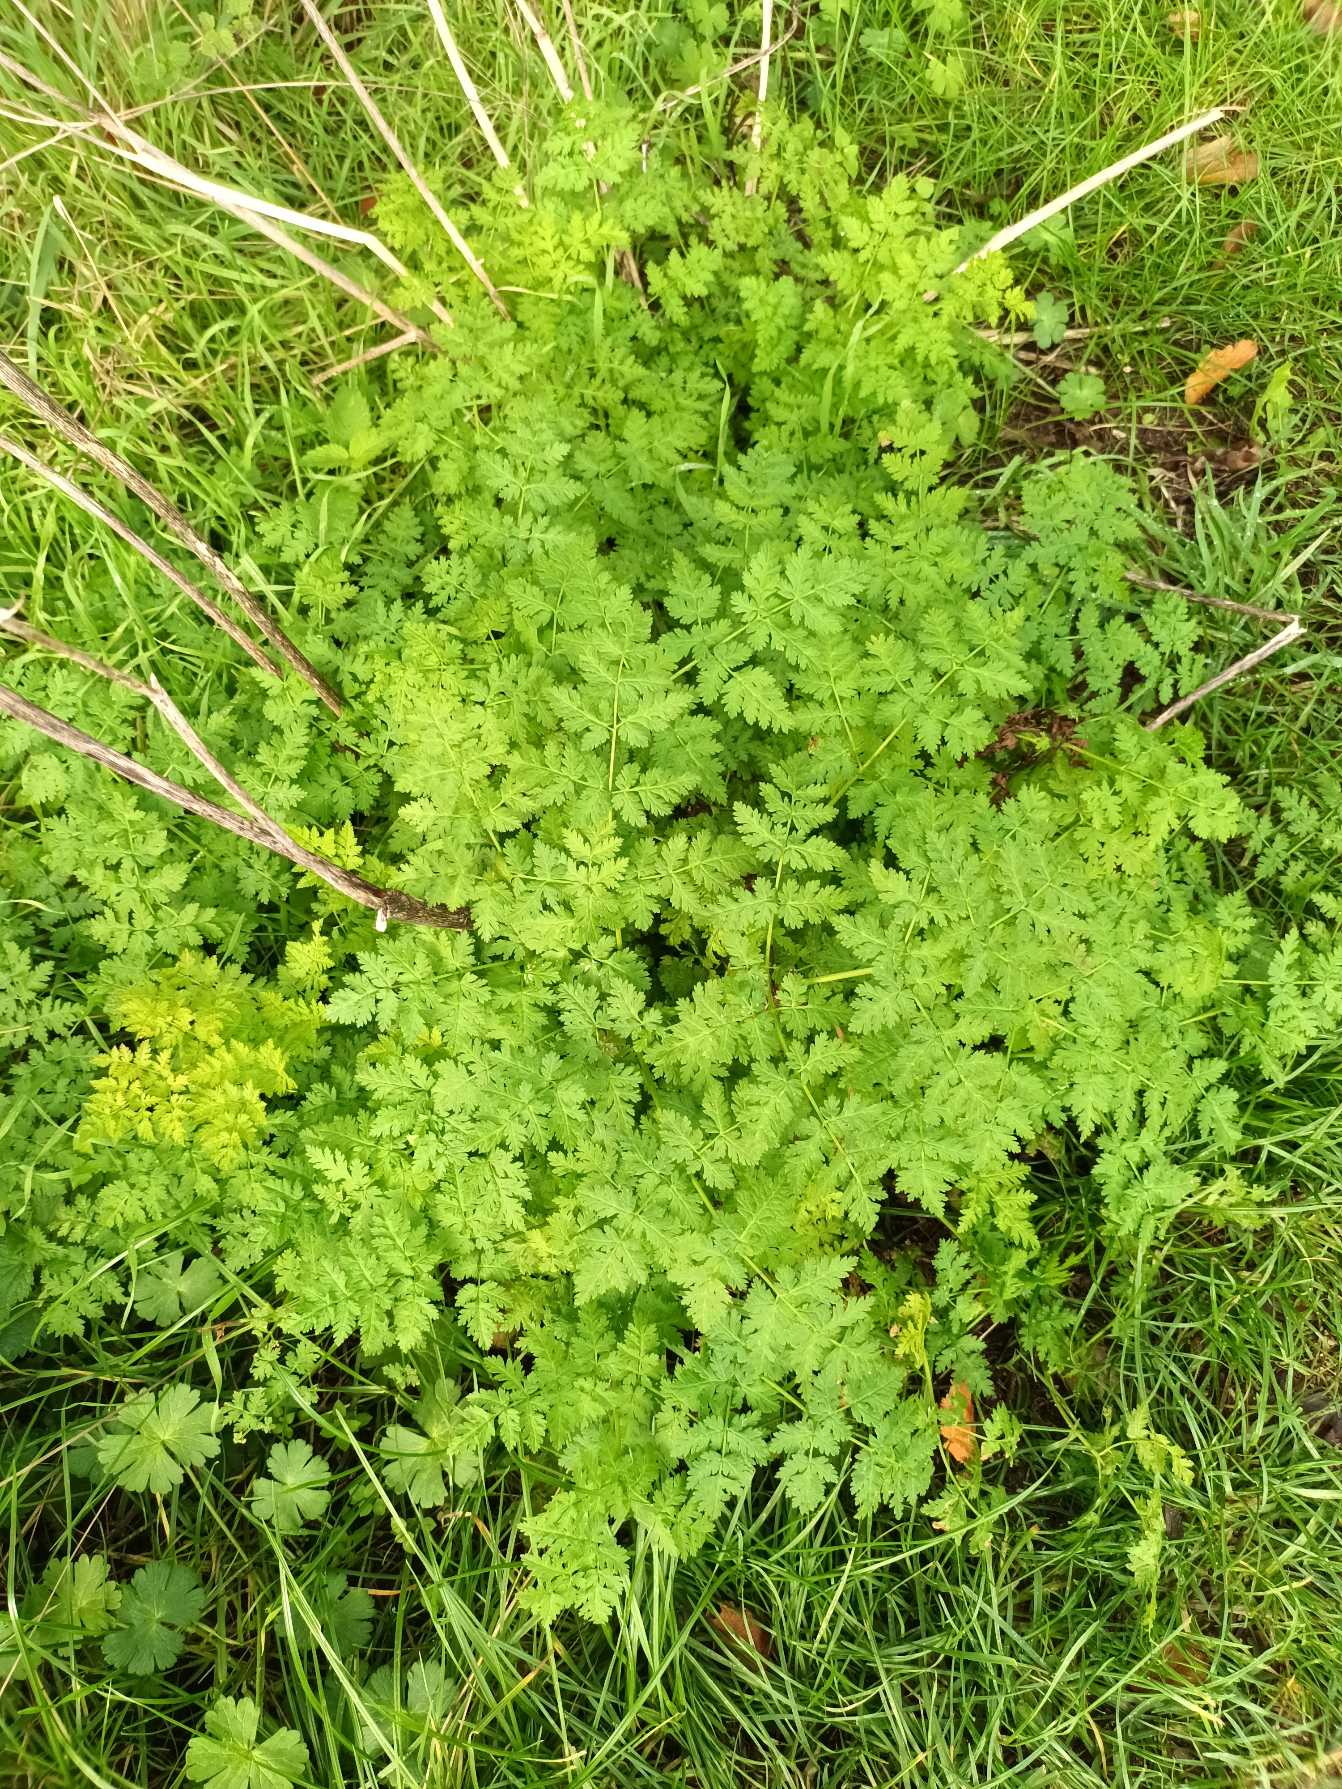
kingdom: Plantae
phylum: Tracheophyta
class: Magnoliopsida
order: Apiales
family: Apiaceae
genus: Myrrhis
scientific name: Myrrhis odorata
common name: Sødskærm
